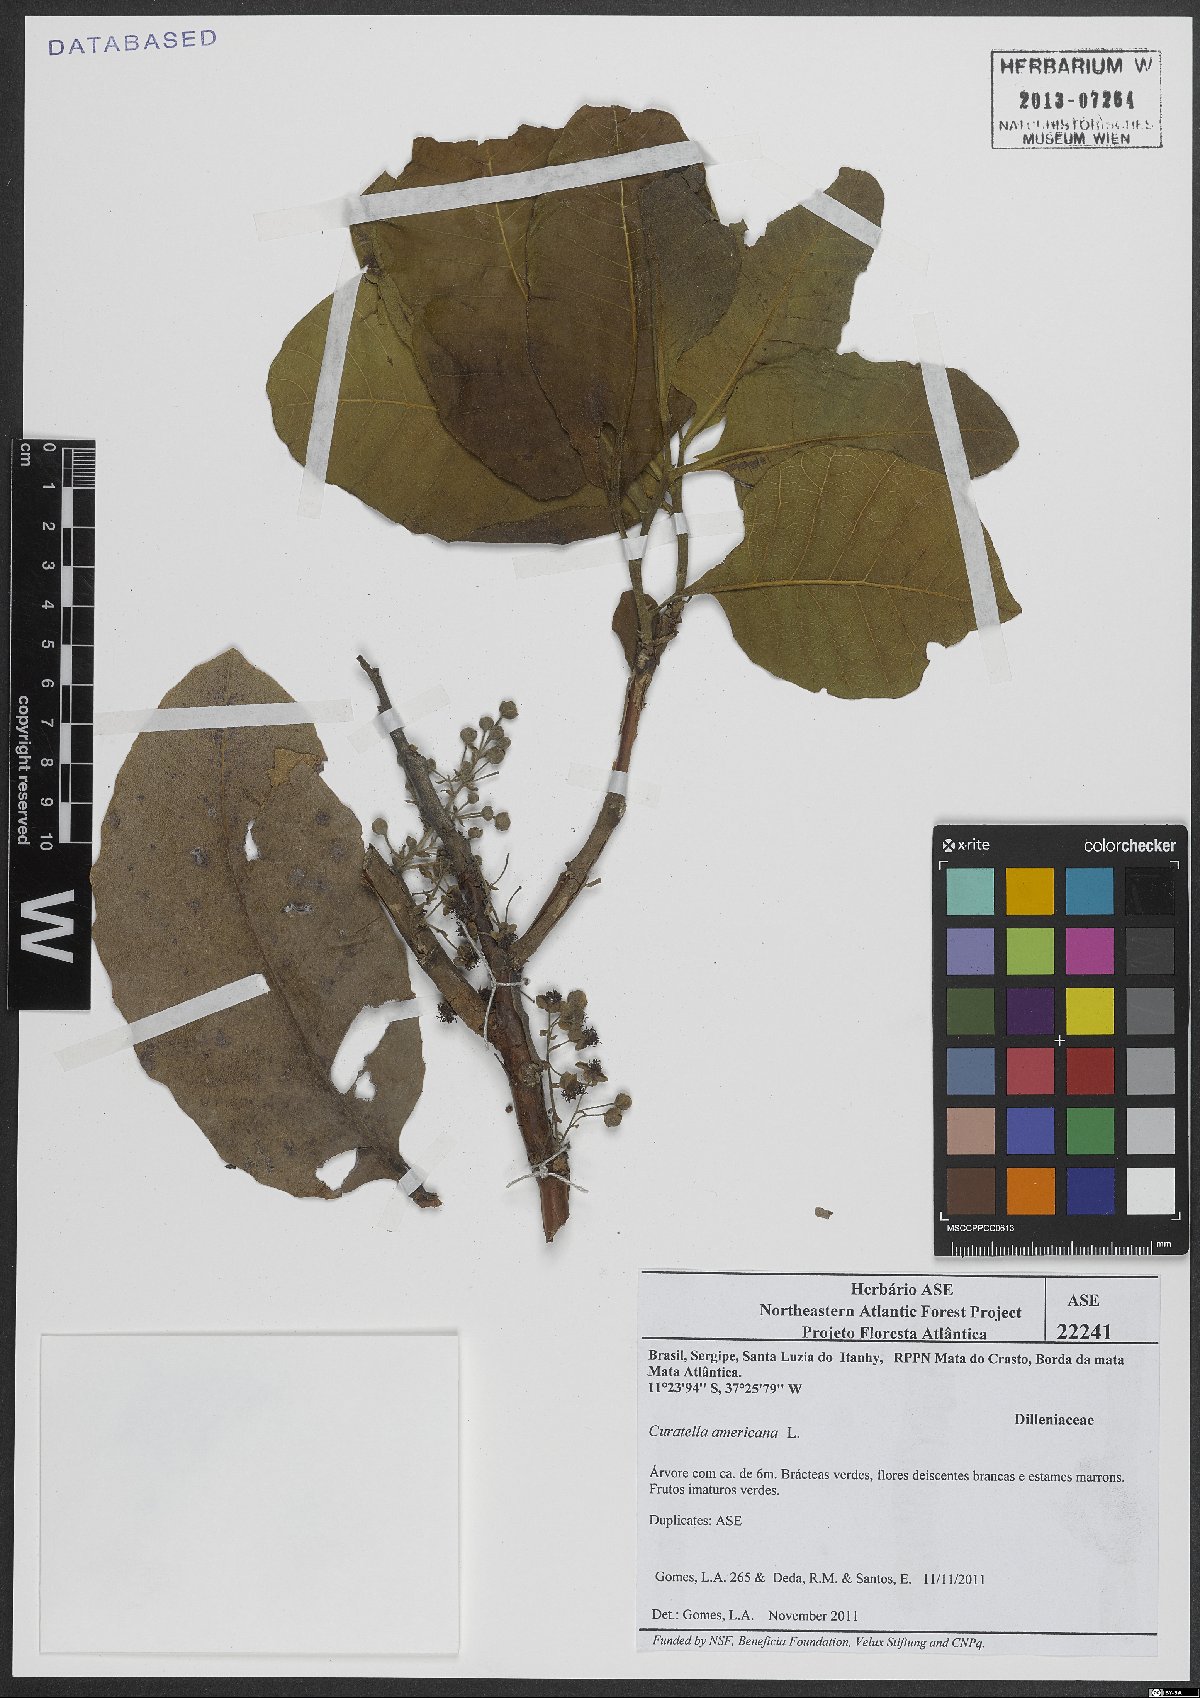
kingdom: Plantae
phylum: Tracheophyta
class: Magnoliopsida
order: Dilleniales
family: Dilleniaceae
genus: Curatella
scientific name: Curatella americana
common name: Sandpaper tree
